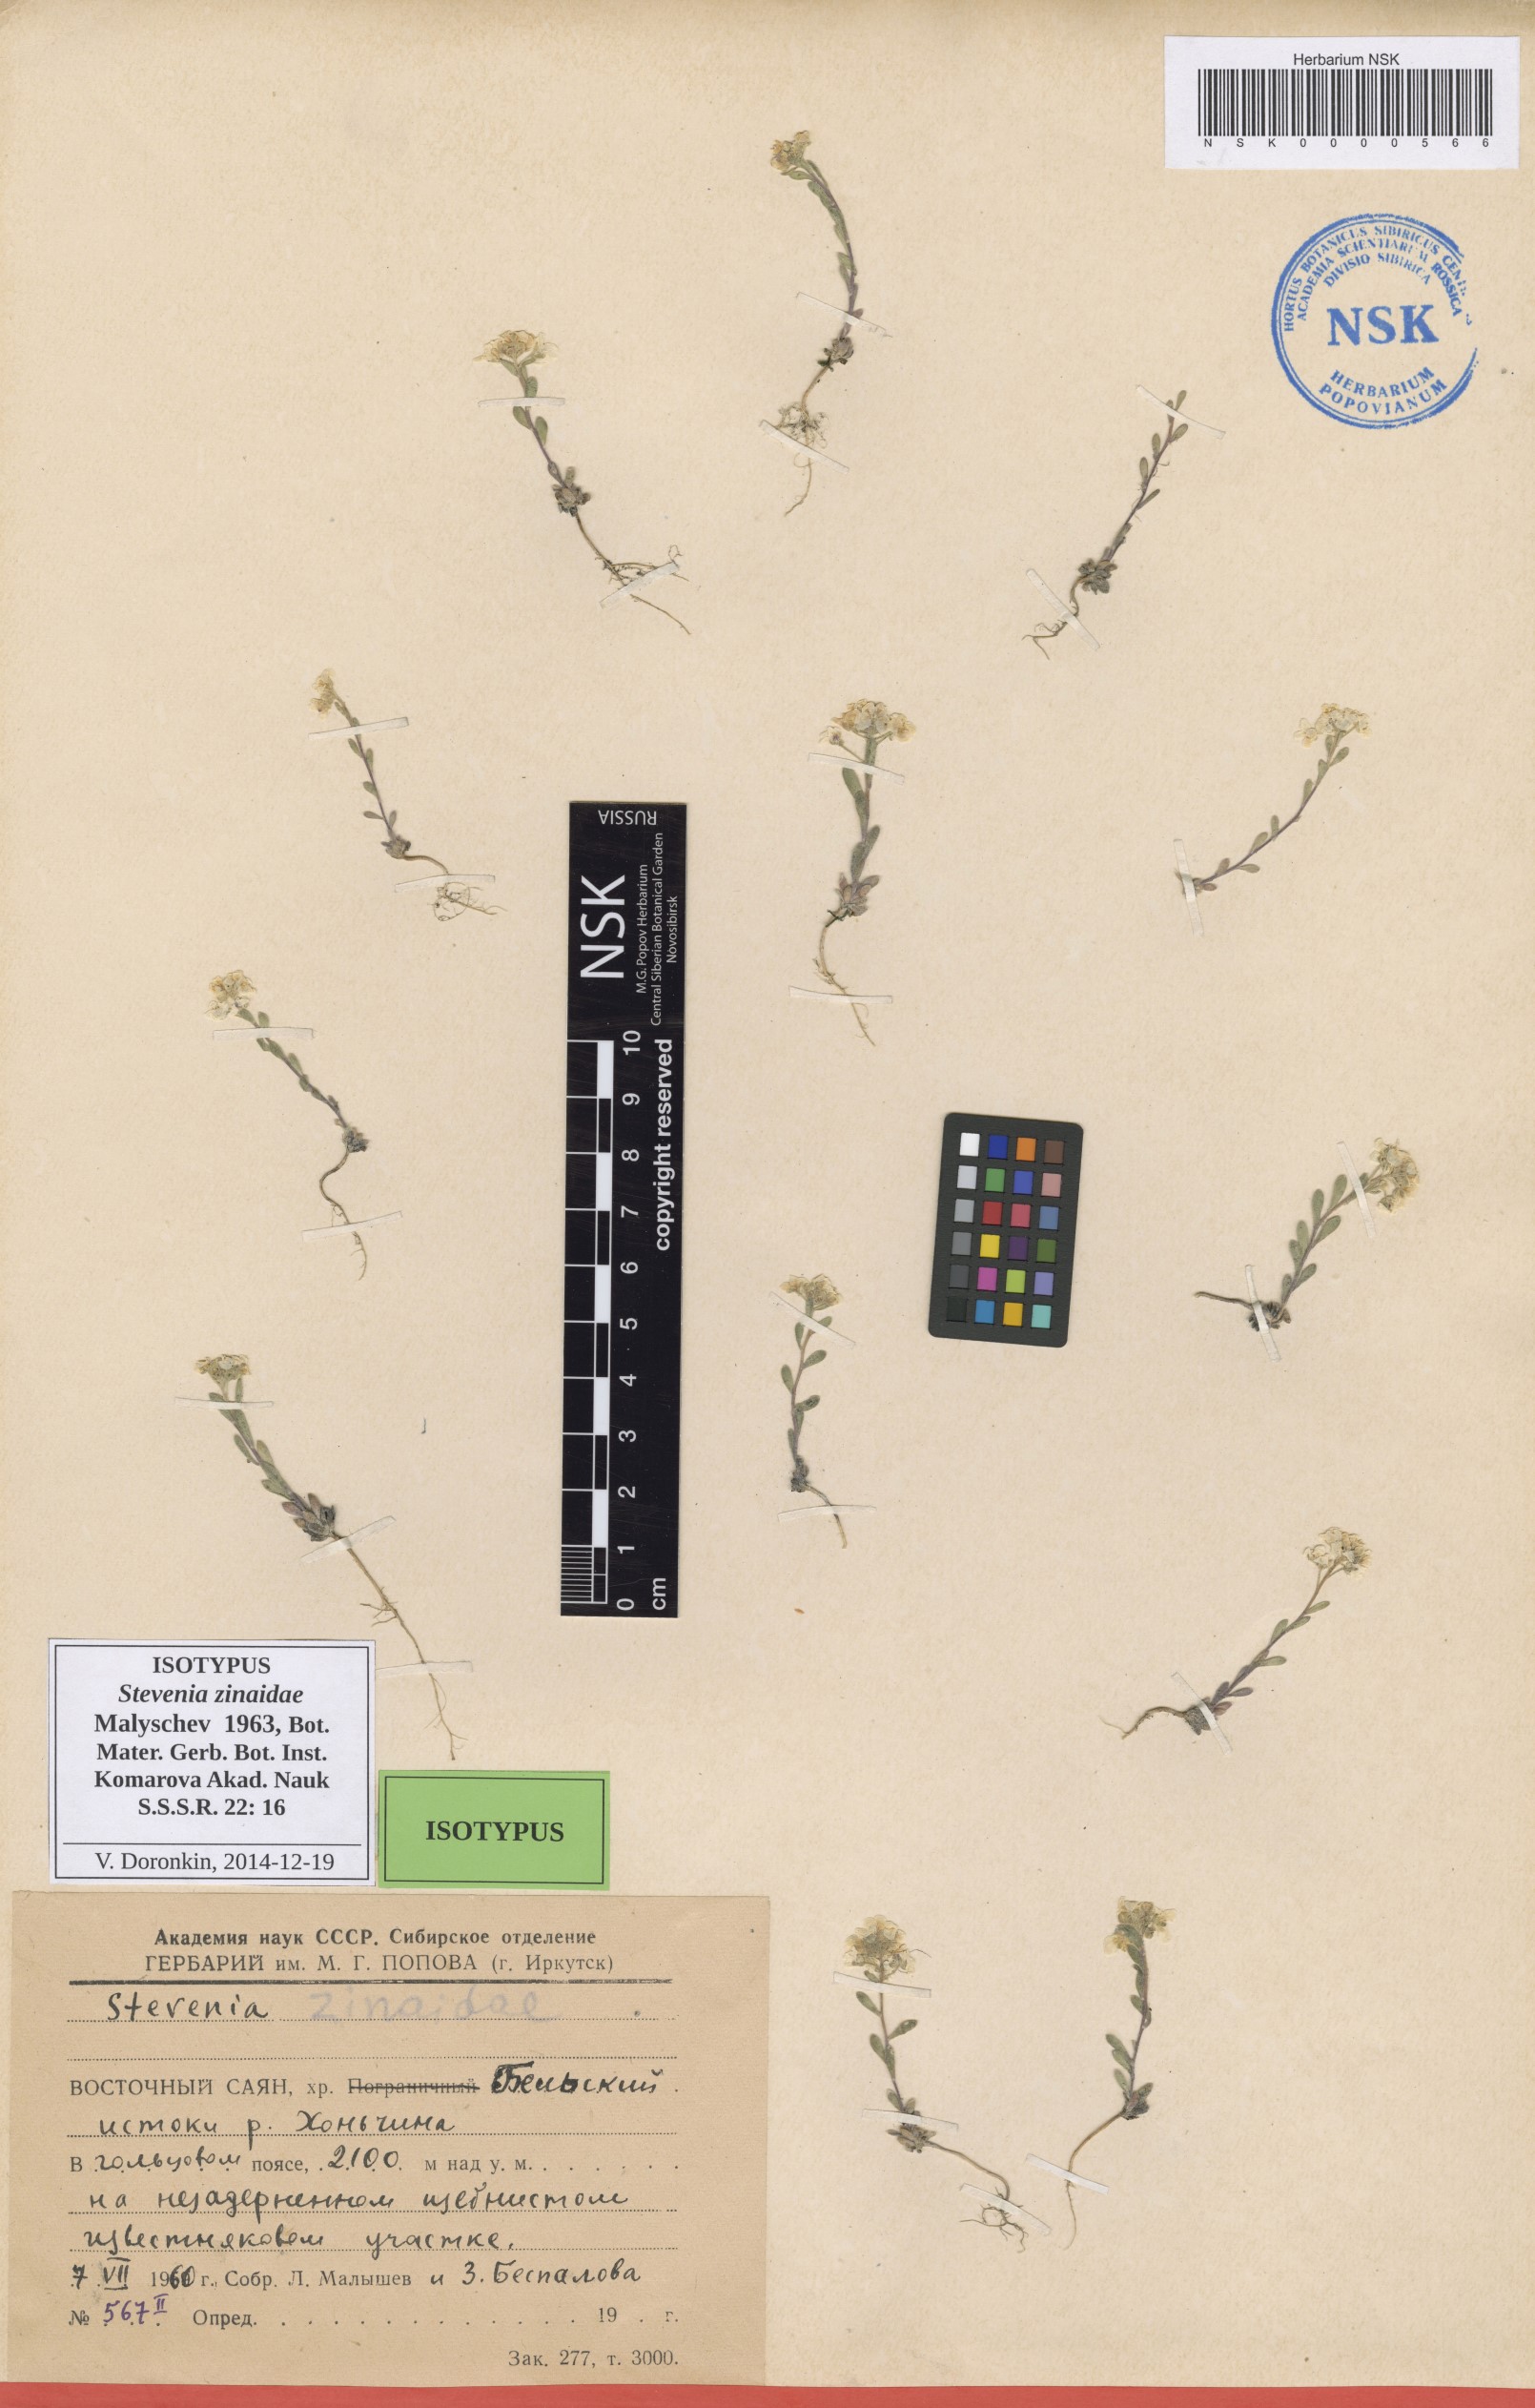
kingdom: Plantae
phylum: Tracheophyta
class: Magnoliopsida
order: Brassicales
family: Brassicaceae
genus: Stevenia
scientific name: Stevenia alyssoides
